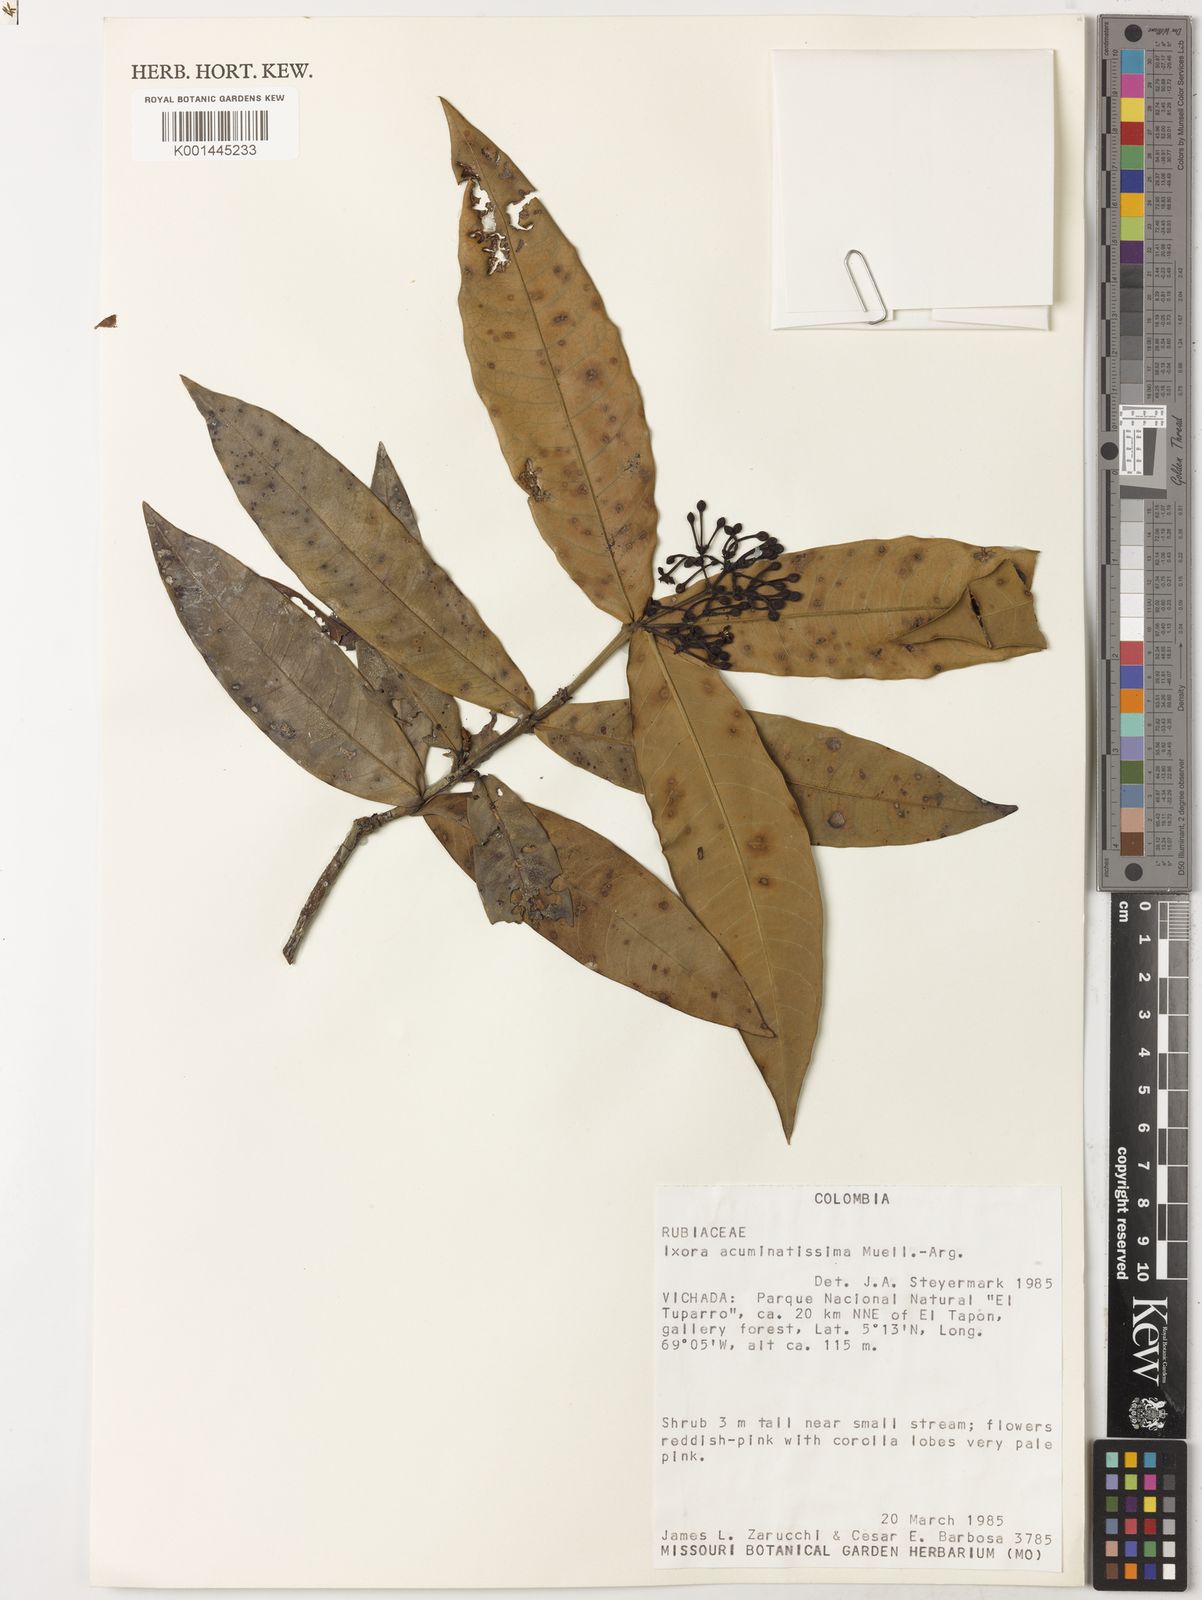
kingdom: Plantae
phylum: Tracheophyta
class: Magnoliopsida
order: Gentianales
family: Rubiaceae
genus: Ixora
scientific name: Ixora
